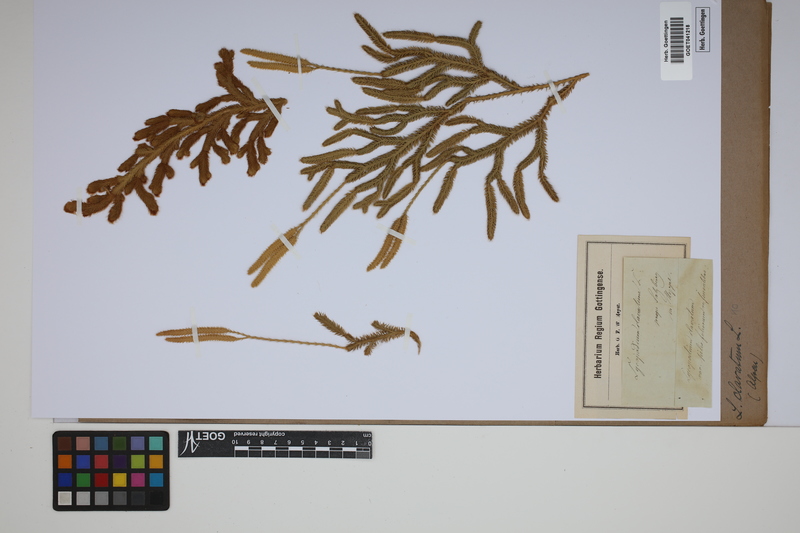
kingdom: Plantae
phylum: Tracheophyta
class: Lycopodiopsida
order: Lycopodiales
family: Lycopodiaceae
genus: Lycopodium
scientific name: Lycopodium clavatum
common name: Stag's-horn clubmoss
